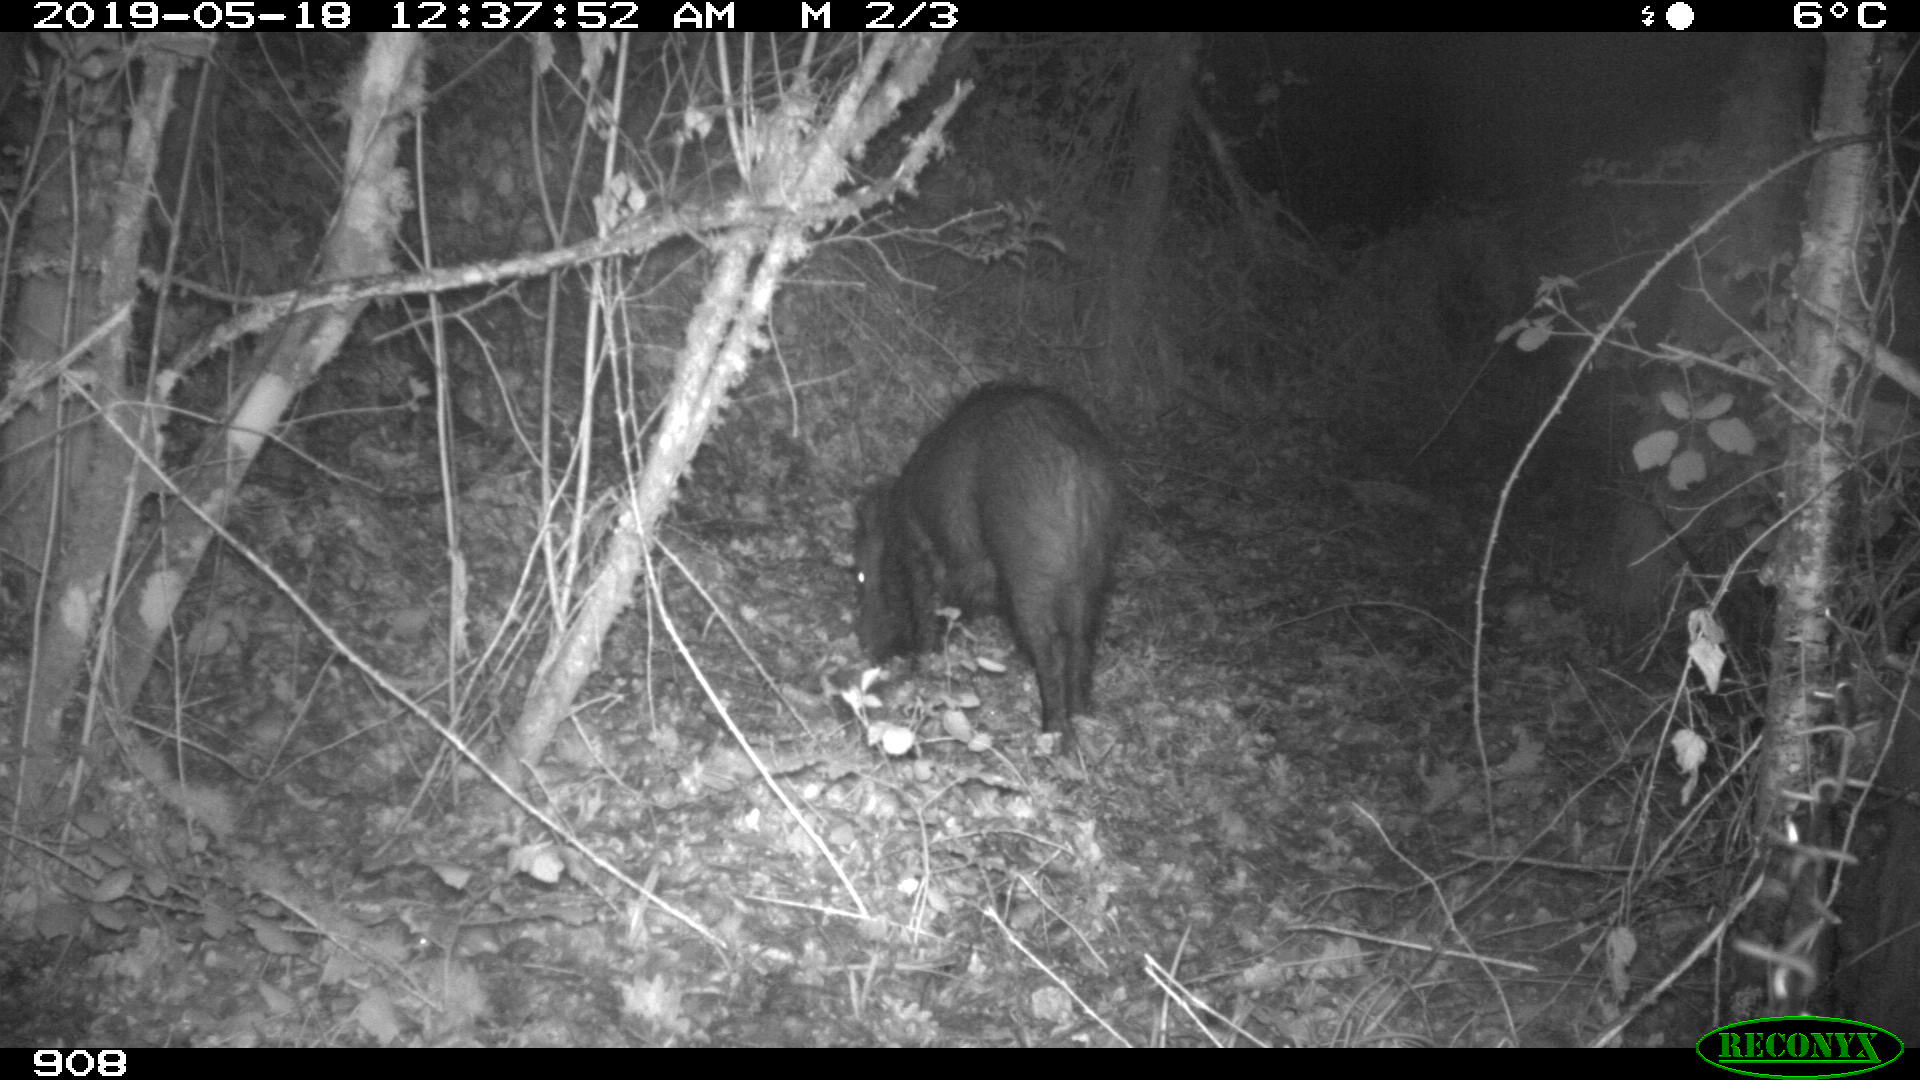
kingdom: Animalia
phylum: Chordata
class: Mammalia
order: Artiodactyla
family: Suidae
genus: Sus
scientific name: Sus scrofa
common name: Wild boar
